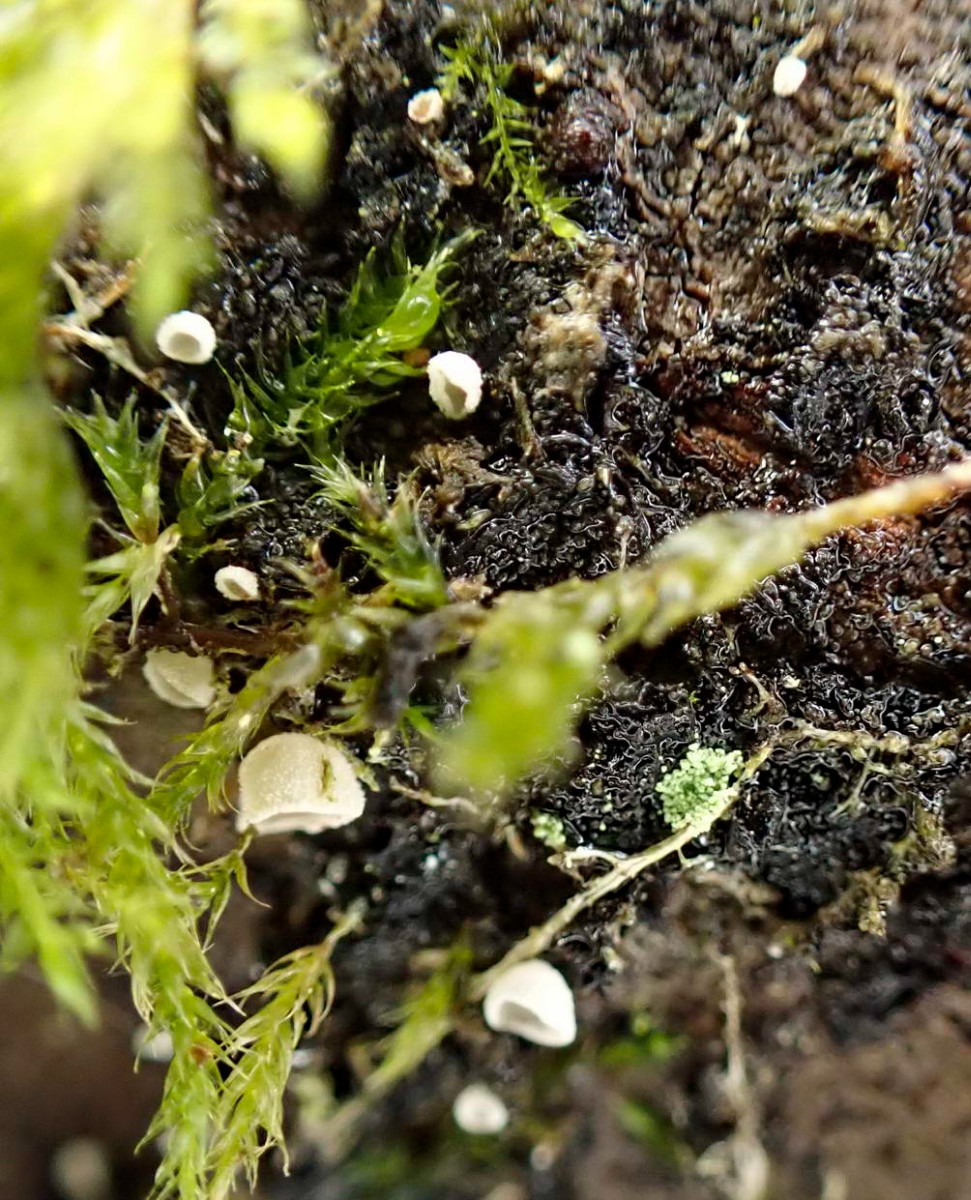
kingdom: Fungi
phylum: Basidiomycota
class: Agaricomycetes
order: Agaricales
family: Chromocyphellaceae
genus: Chromocyphella
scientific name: Chromocyphella muscicola
